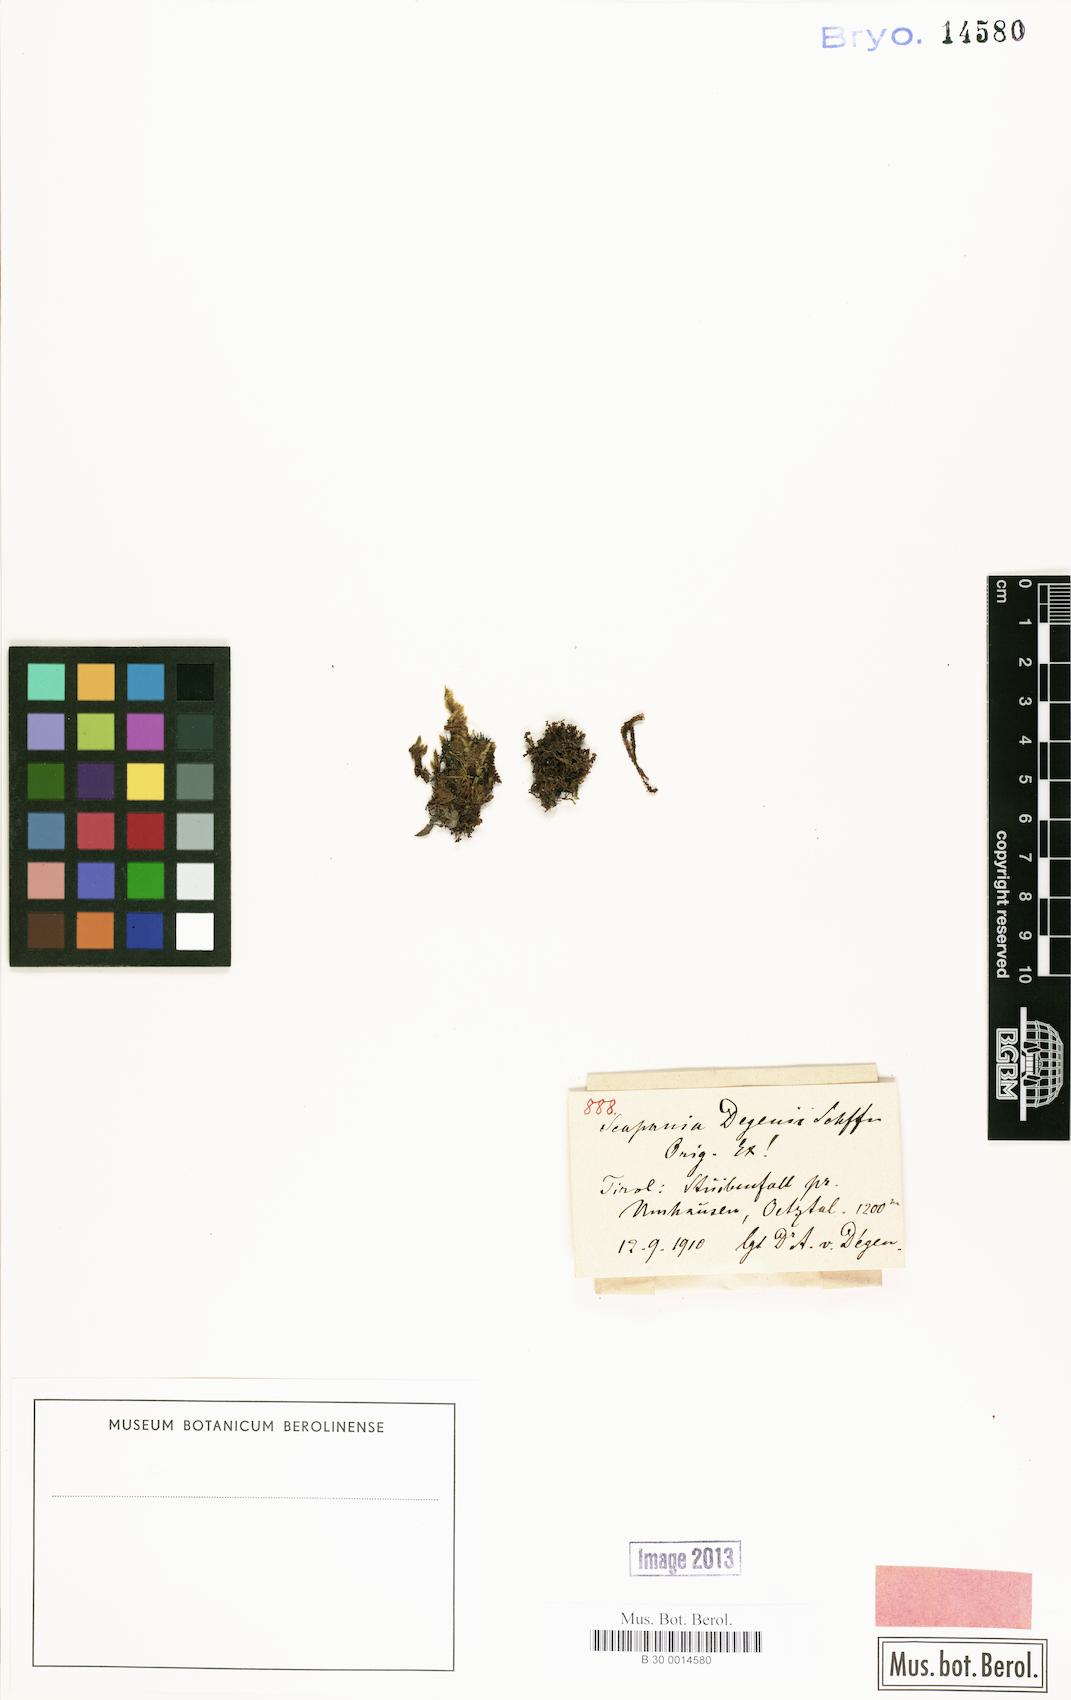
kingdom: Plantae
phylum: Marchantiophyta
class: Jungermanniopsida
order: Jungermanniales
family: Scapaniaceae
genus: Scapania
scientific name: Scapania degenii
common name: Degen's earwort
